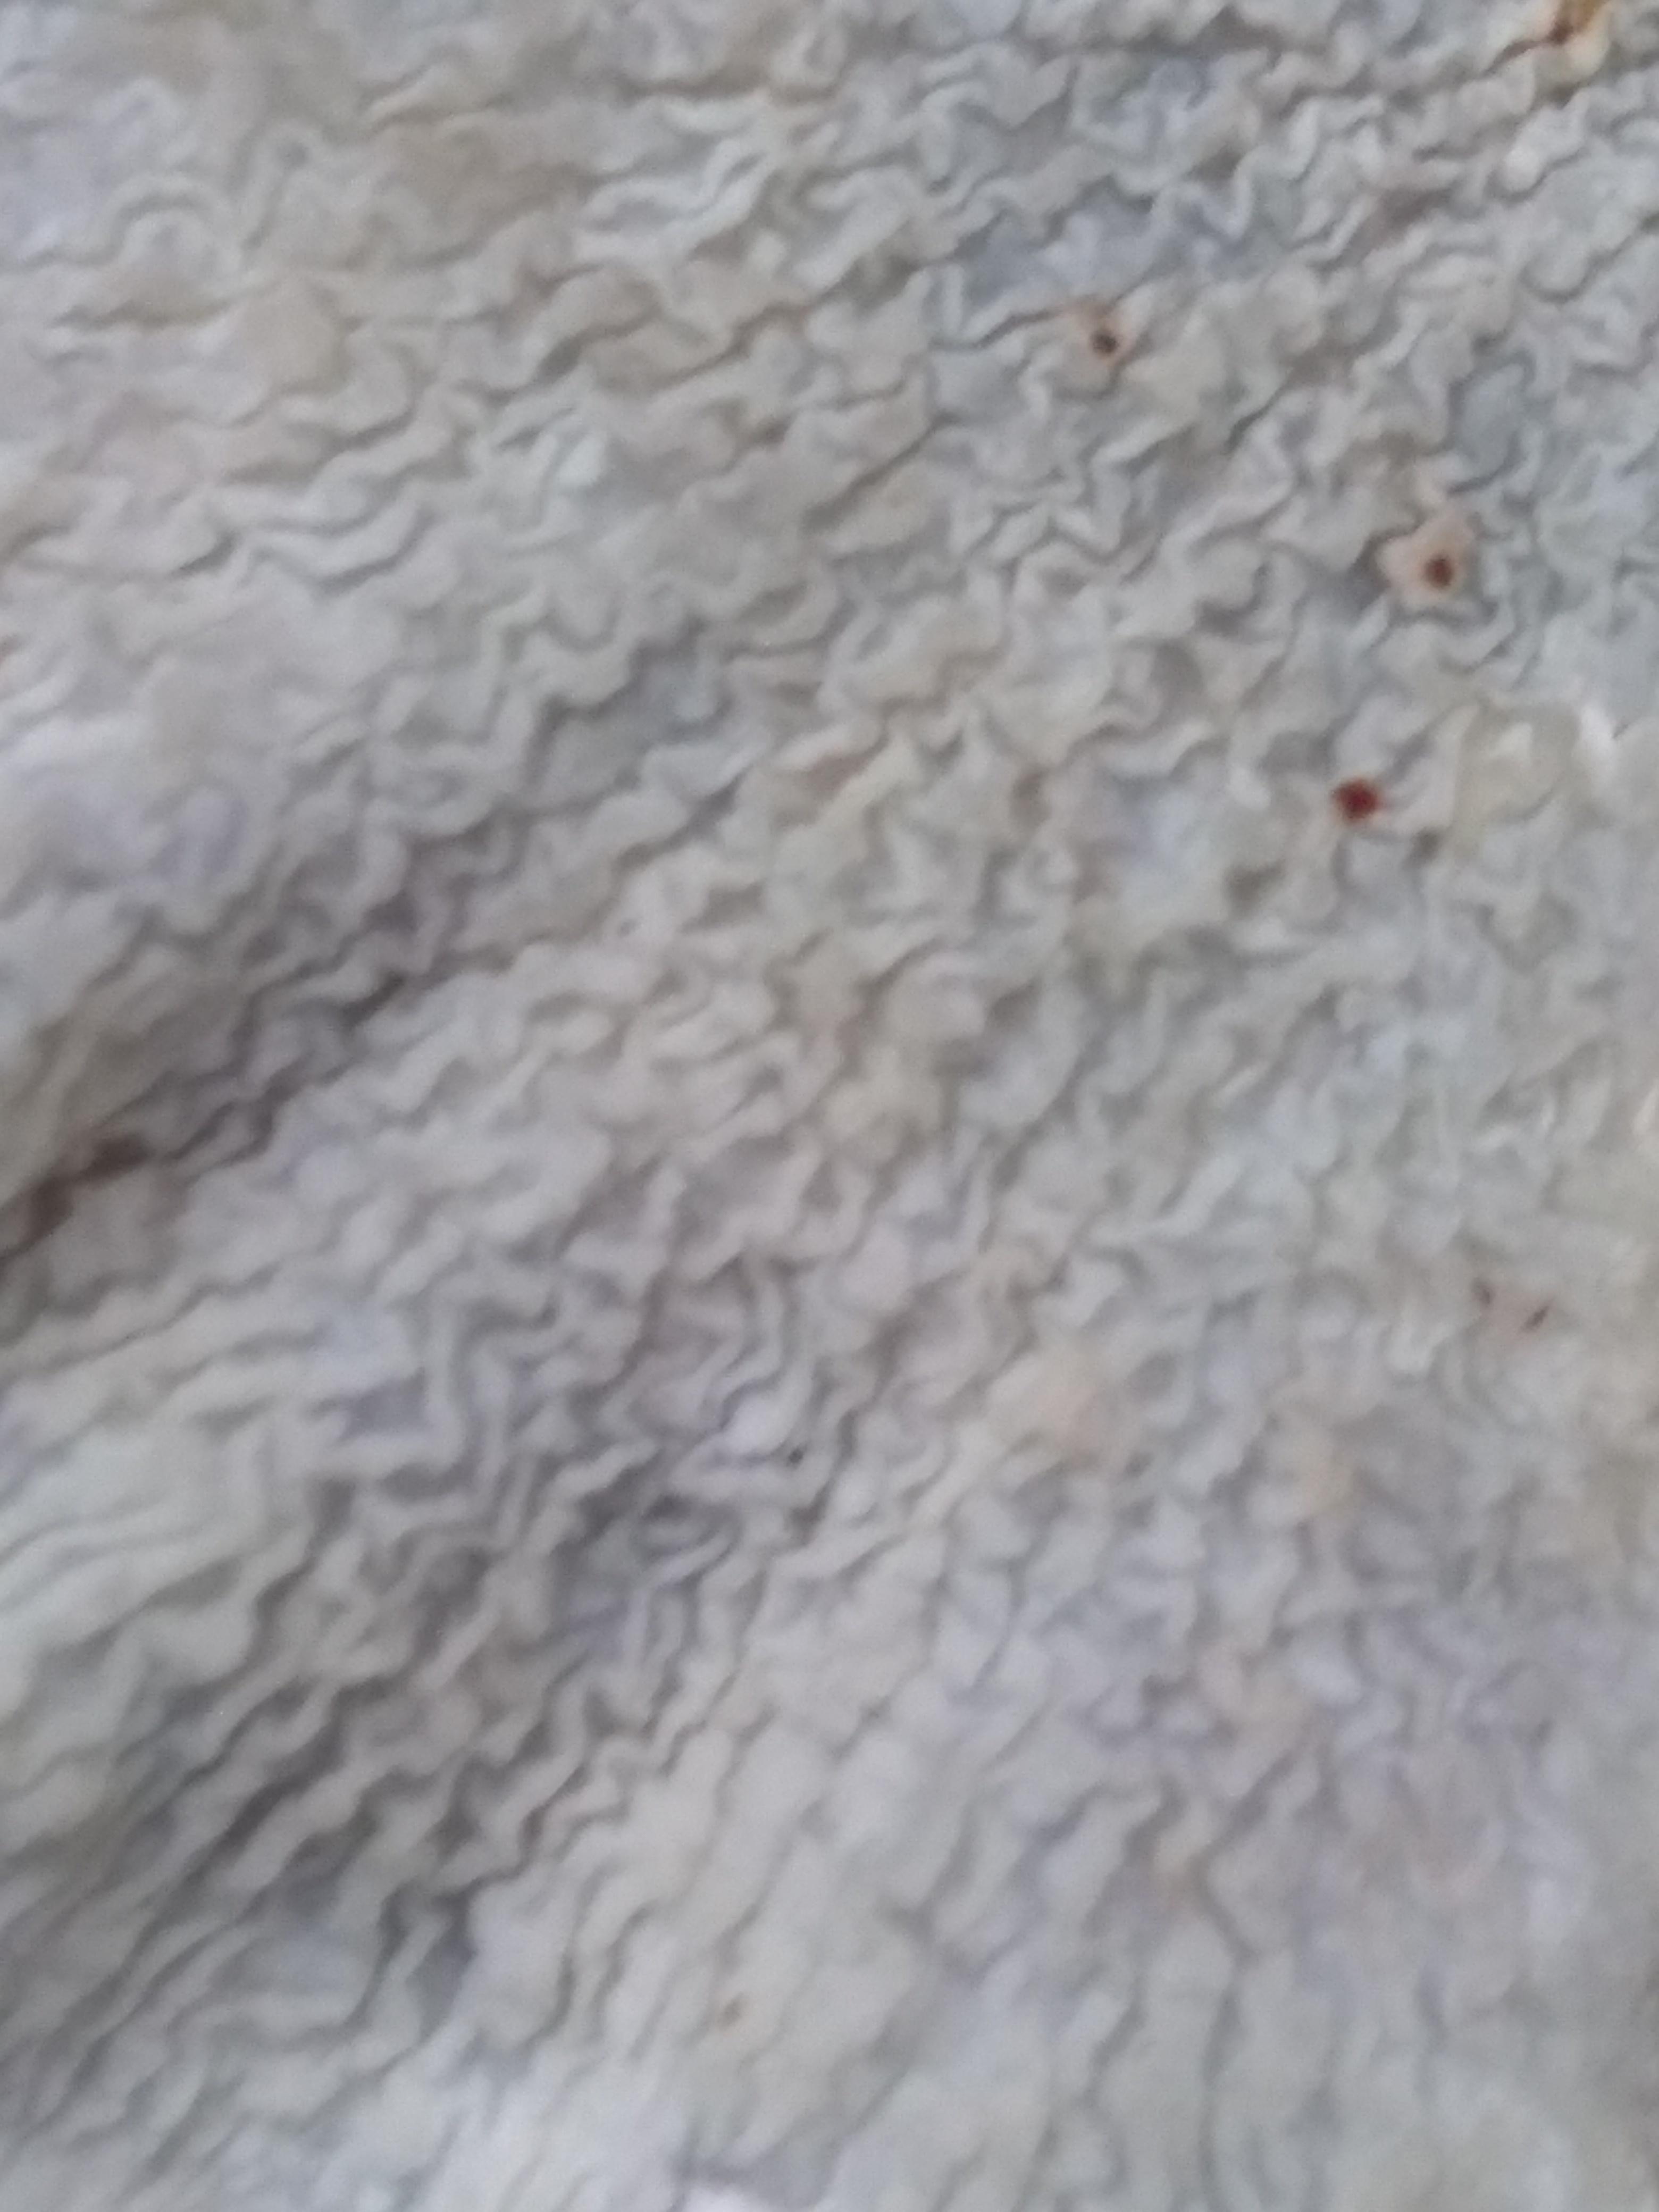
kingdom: Fungi
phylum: Basidiomycota
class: Agaricomycetes
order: Amylocorticiales
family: Amylocorticiaceae
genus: Plicaturopsis
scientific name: Plicaturopsis crispa
